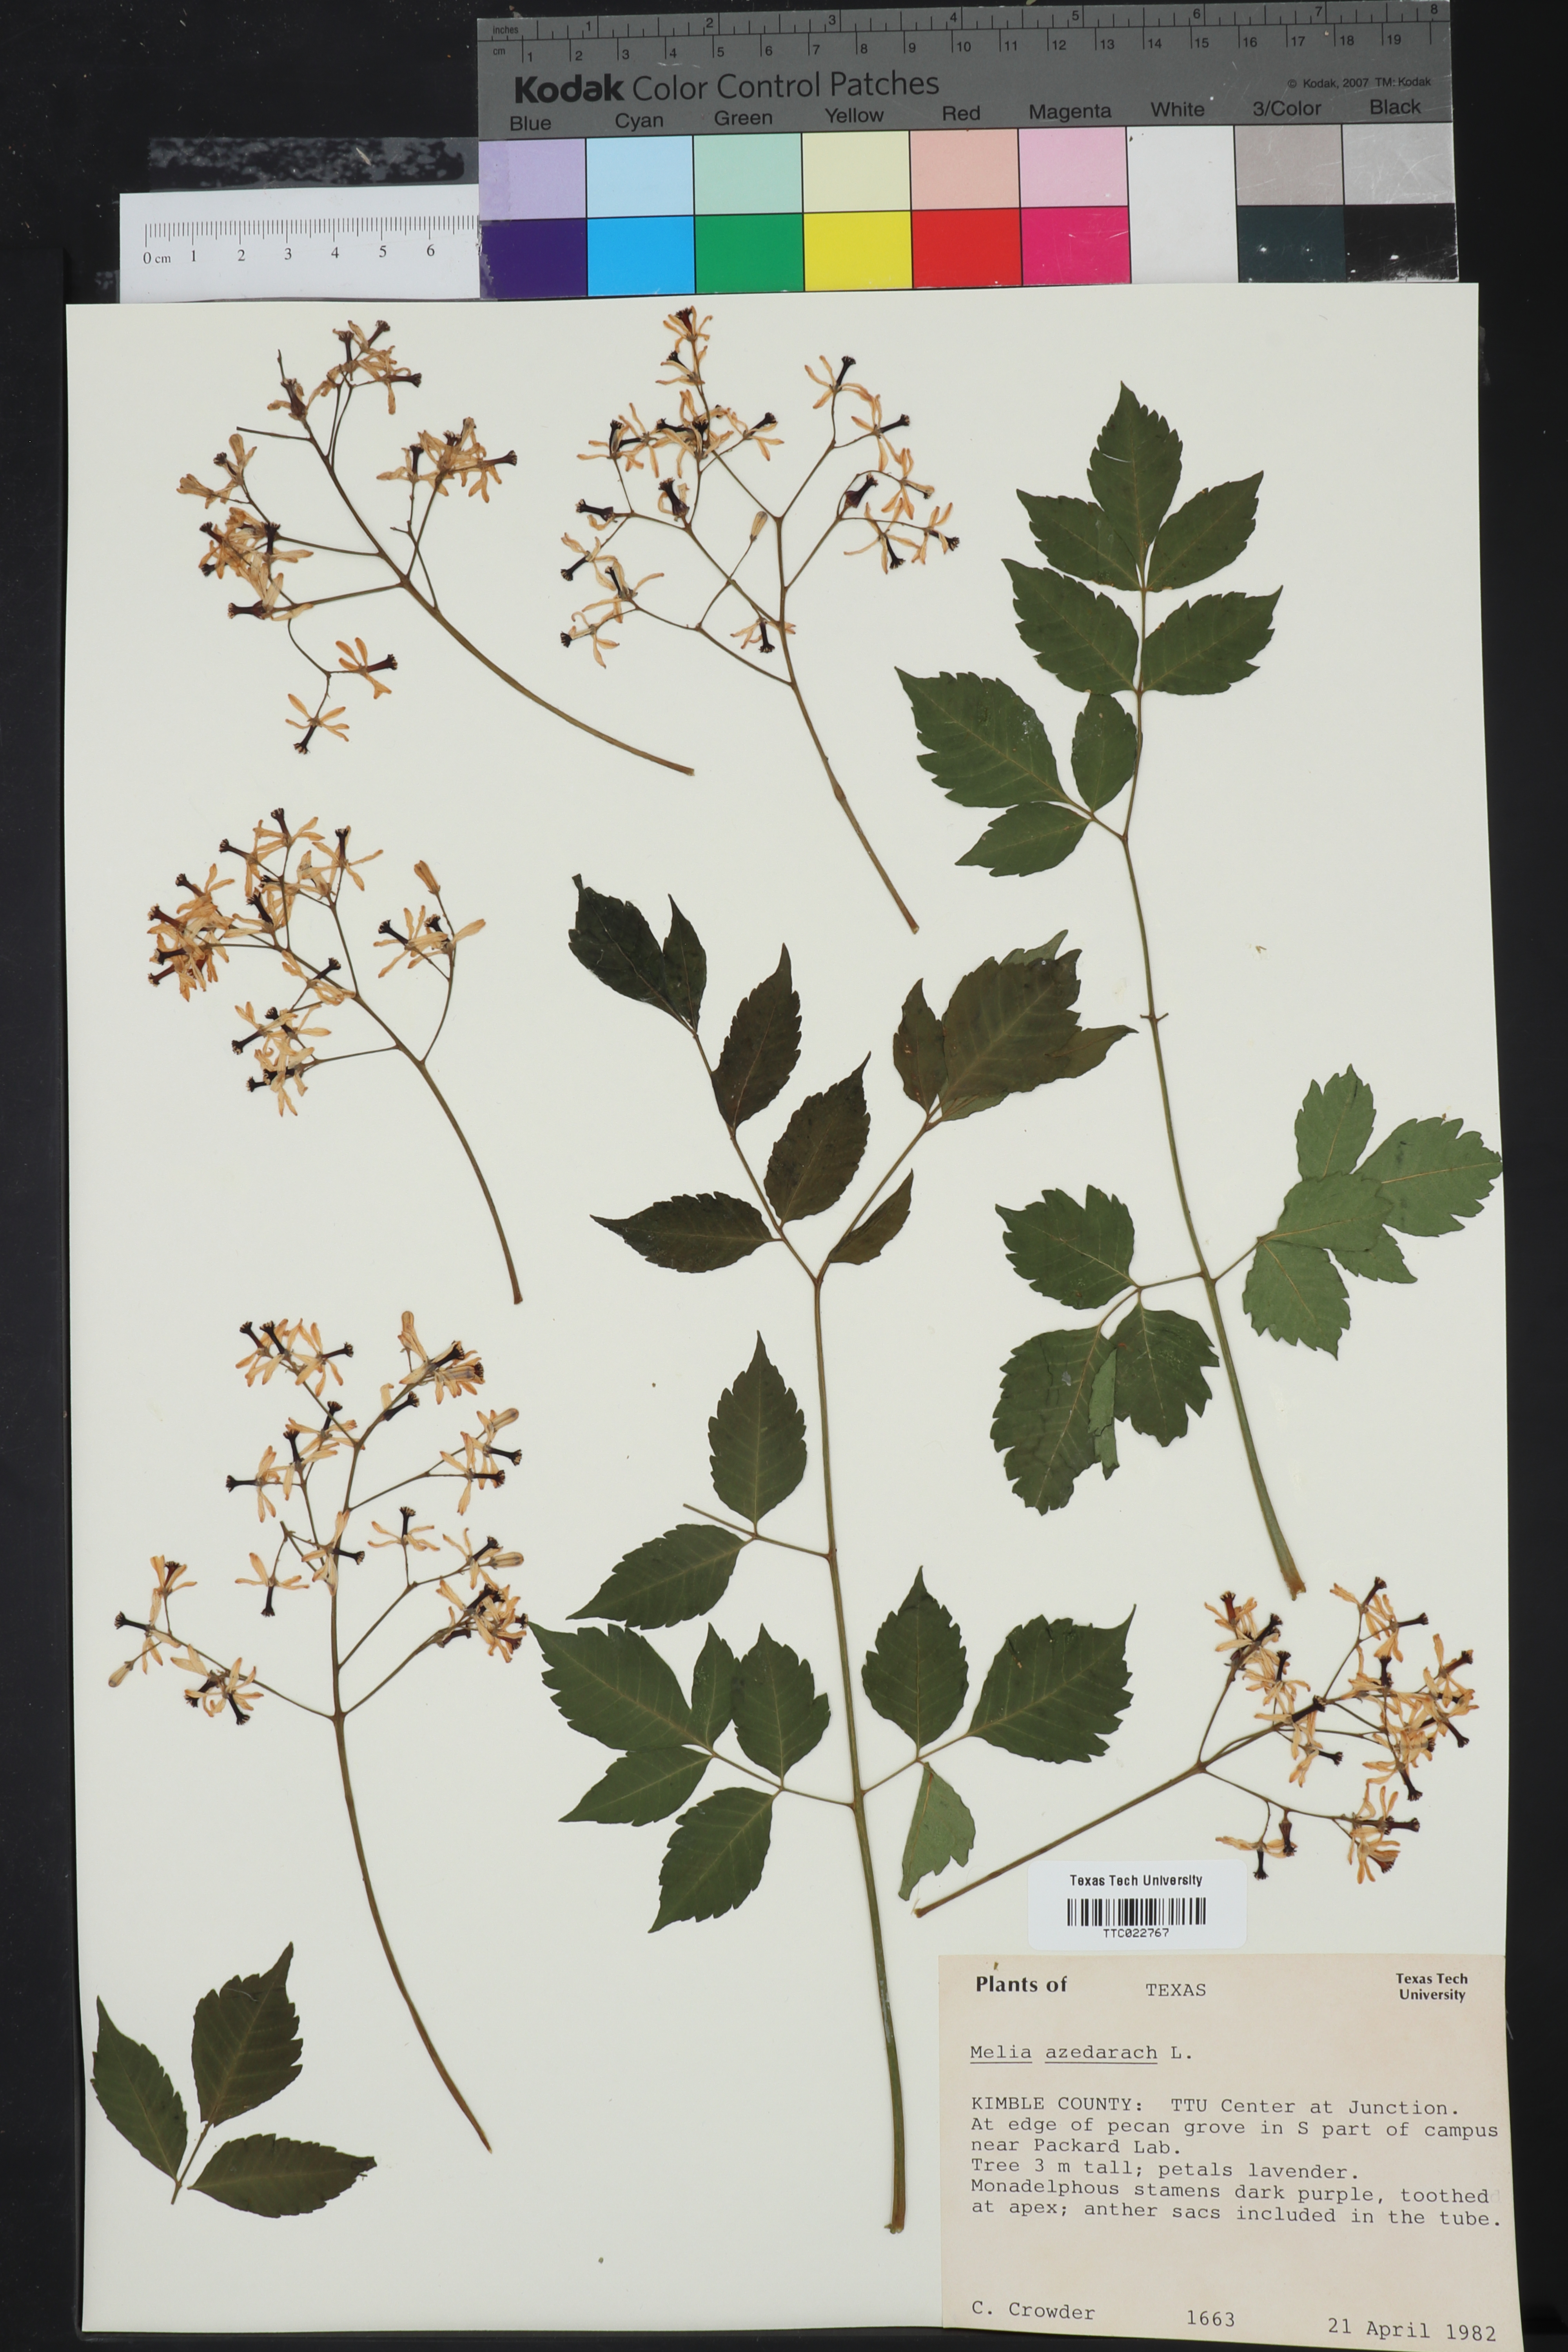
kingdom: Plantae
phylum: Tracheophyta
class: Magnoliopsida
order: Sapindales
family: Meliaceae
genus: Melia
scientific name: Melia azedarach
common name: Chinaberrytree
